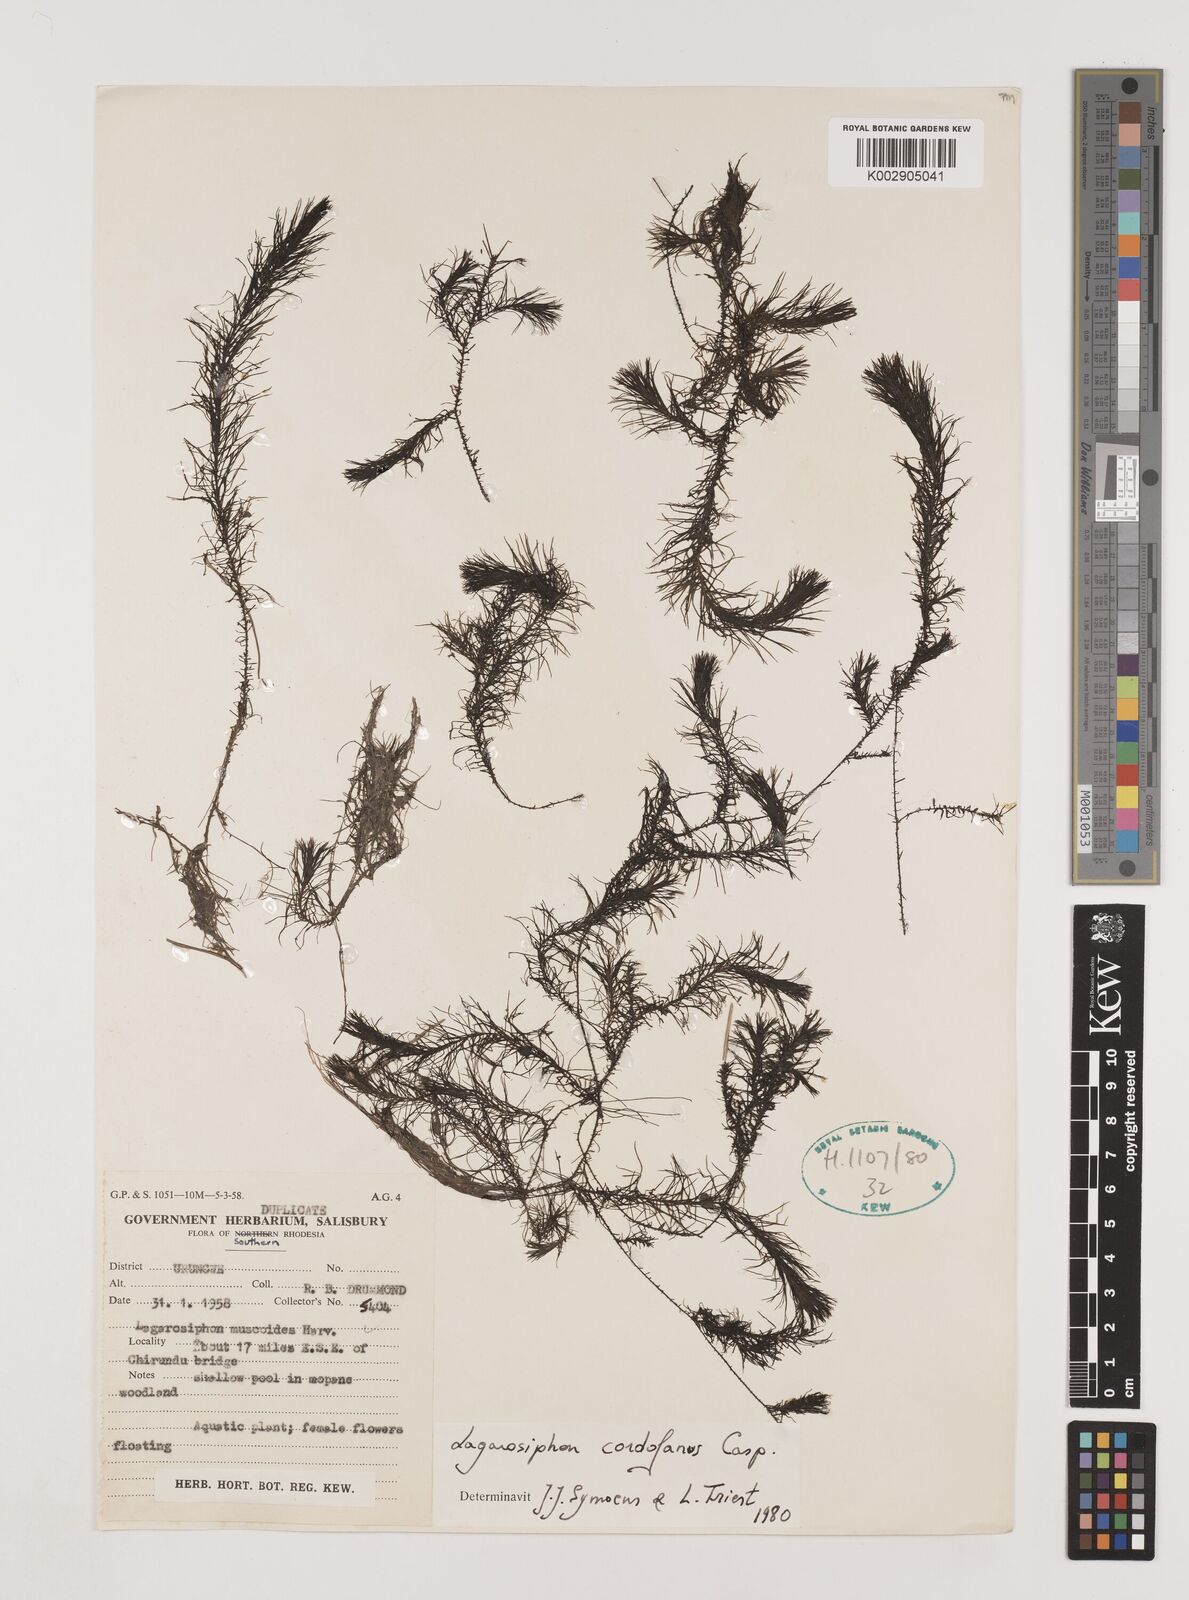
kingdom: Plantae
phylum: Tracheophyta
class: Liliopsida
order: Alismatales
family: Hydrocharitaceae
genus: Lagarosiphon
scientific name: Lagarosiphon cordofanus
